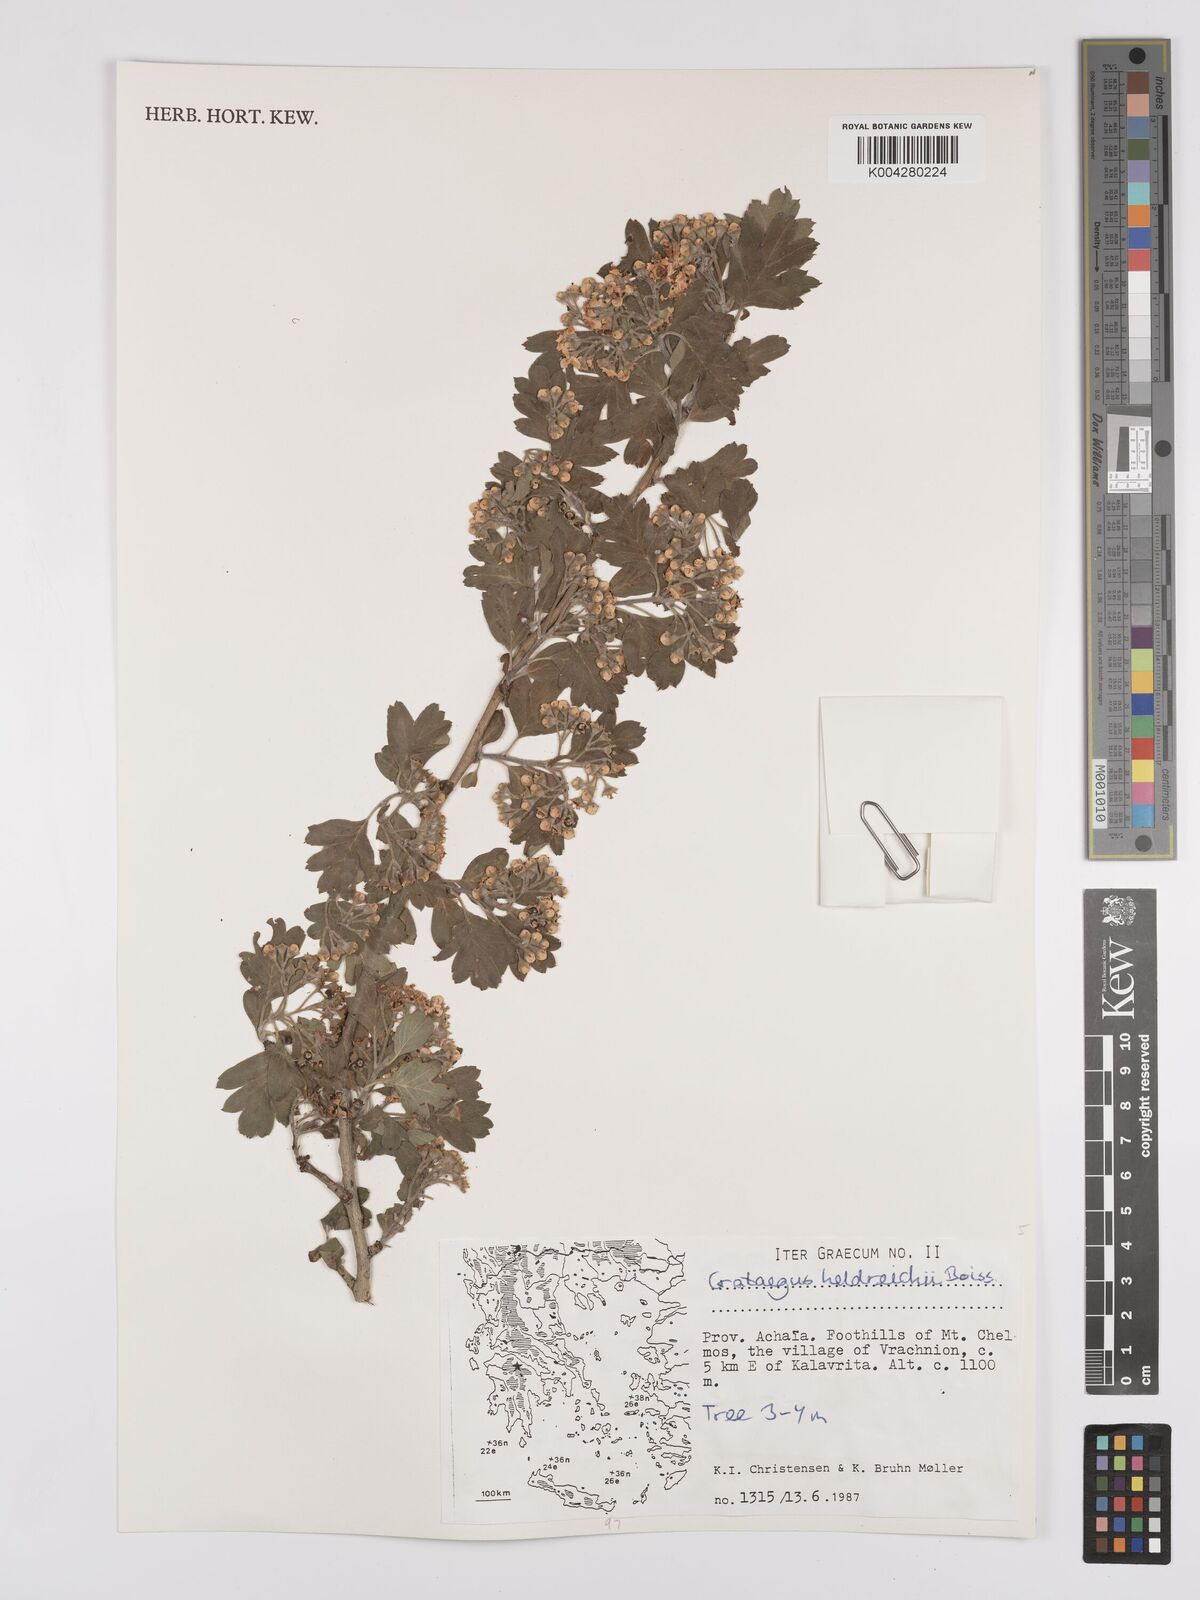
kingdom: Plantae
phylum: Tracheophyta
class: Magnoliopsida
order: Rosales
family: Rosaceae
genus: Crataegus
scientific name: Crataegus heldreichii
